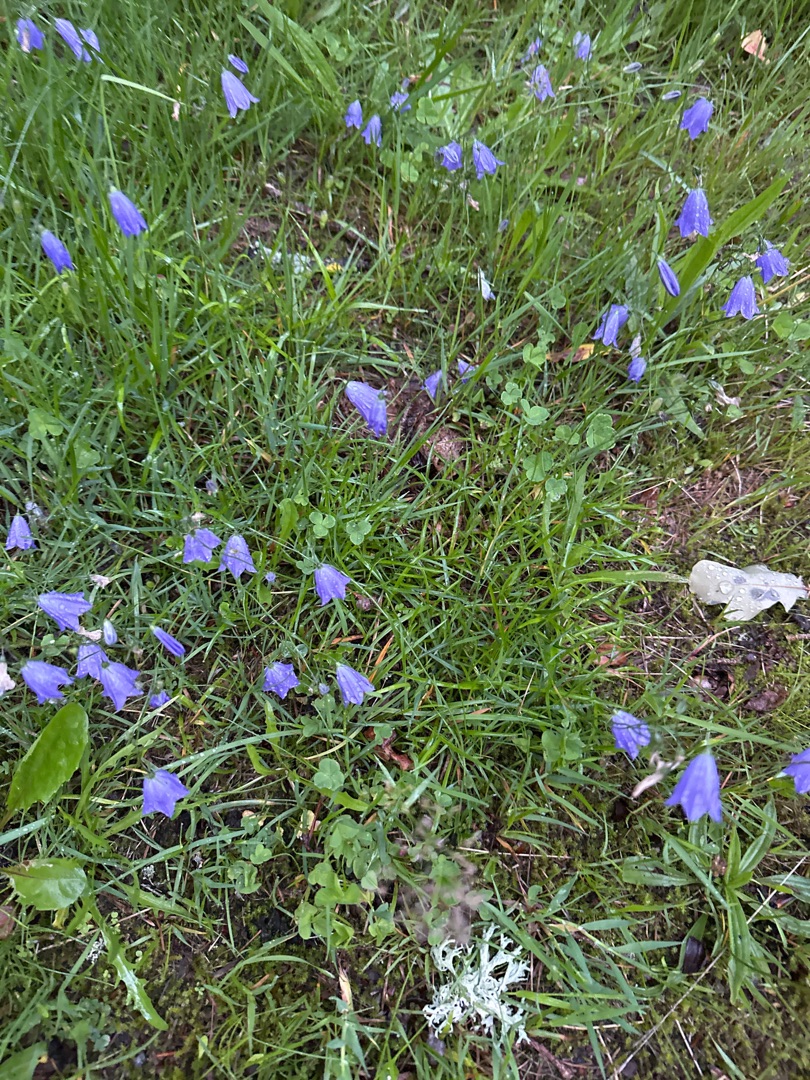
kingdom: Plantae
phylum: Tracheophyta
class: Magnoliopsida
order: Asterales
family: Campanulaceae
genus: Campanula
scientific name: Campanula rotundifolia
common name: Liden klokke
